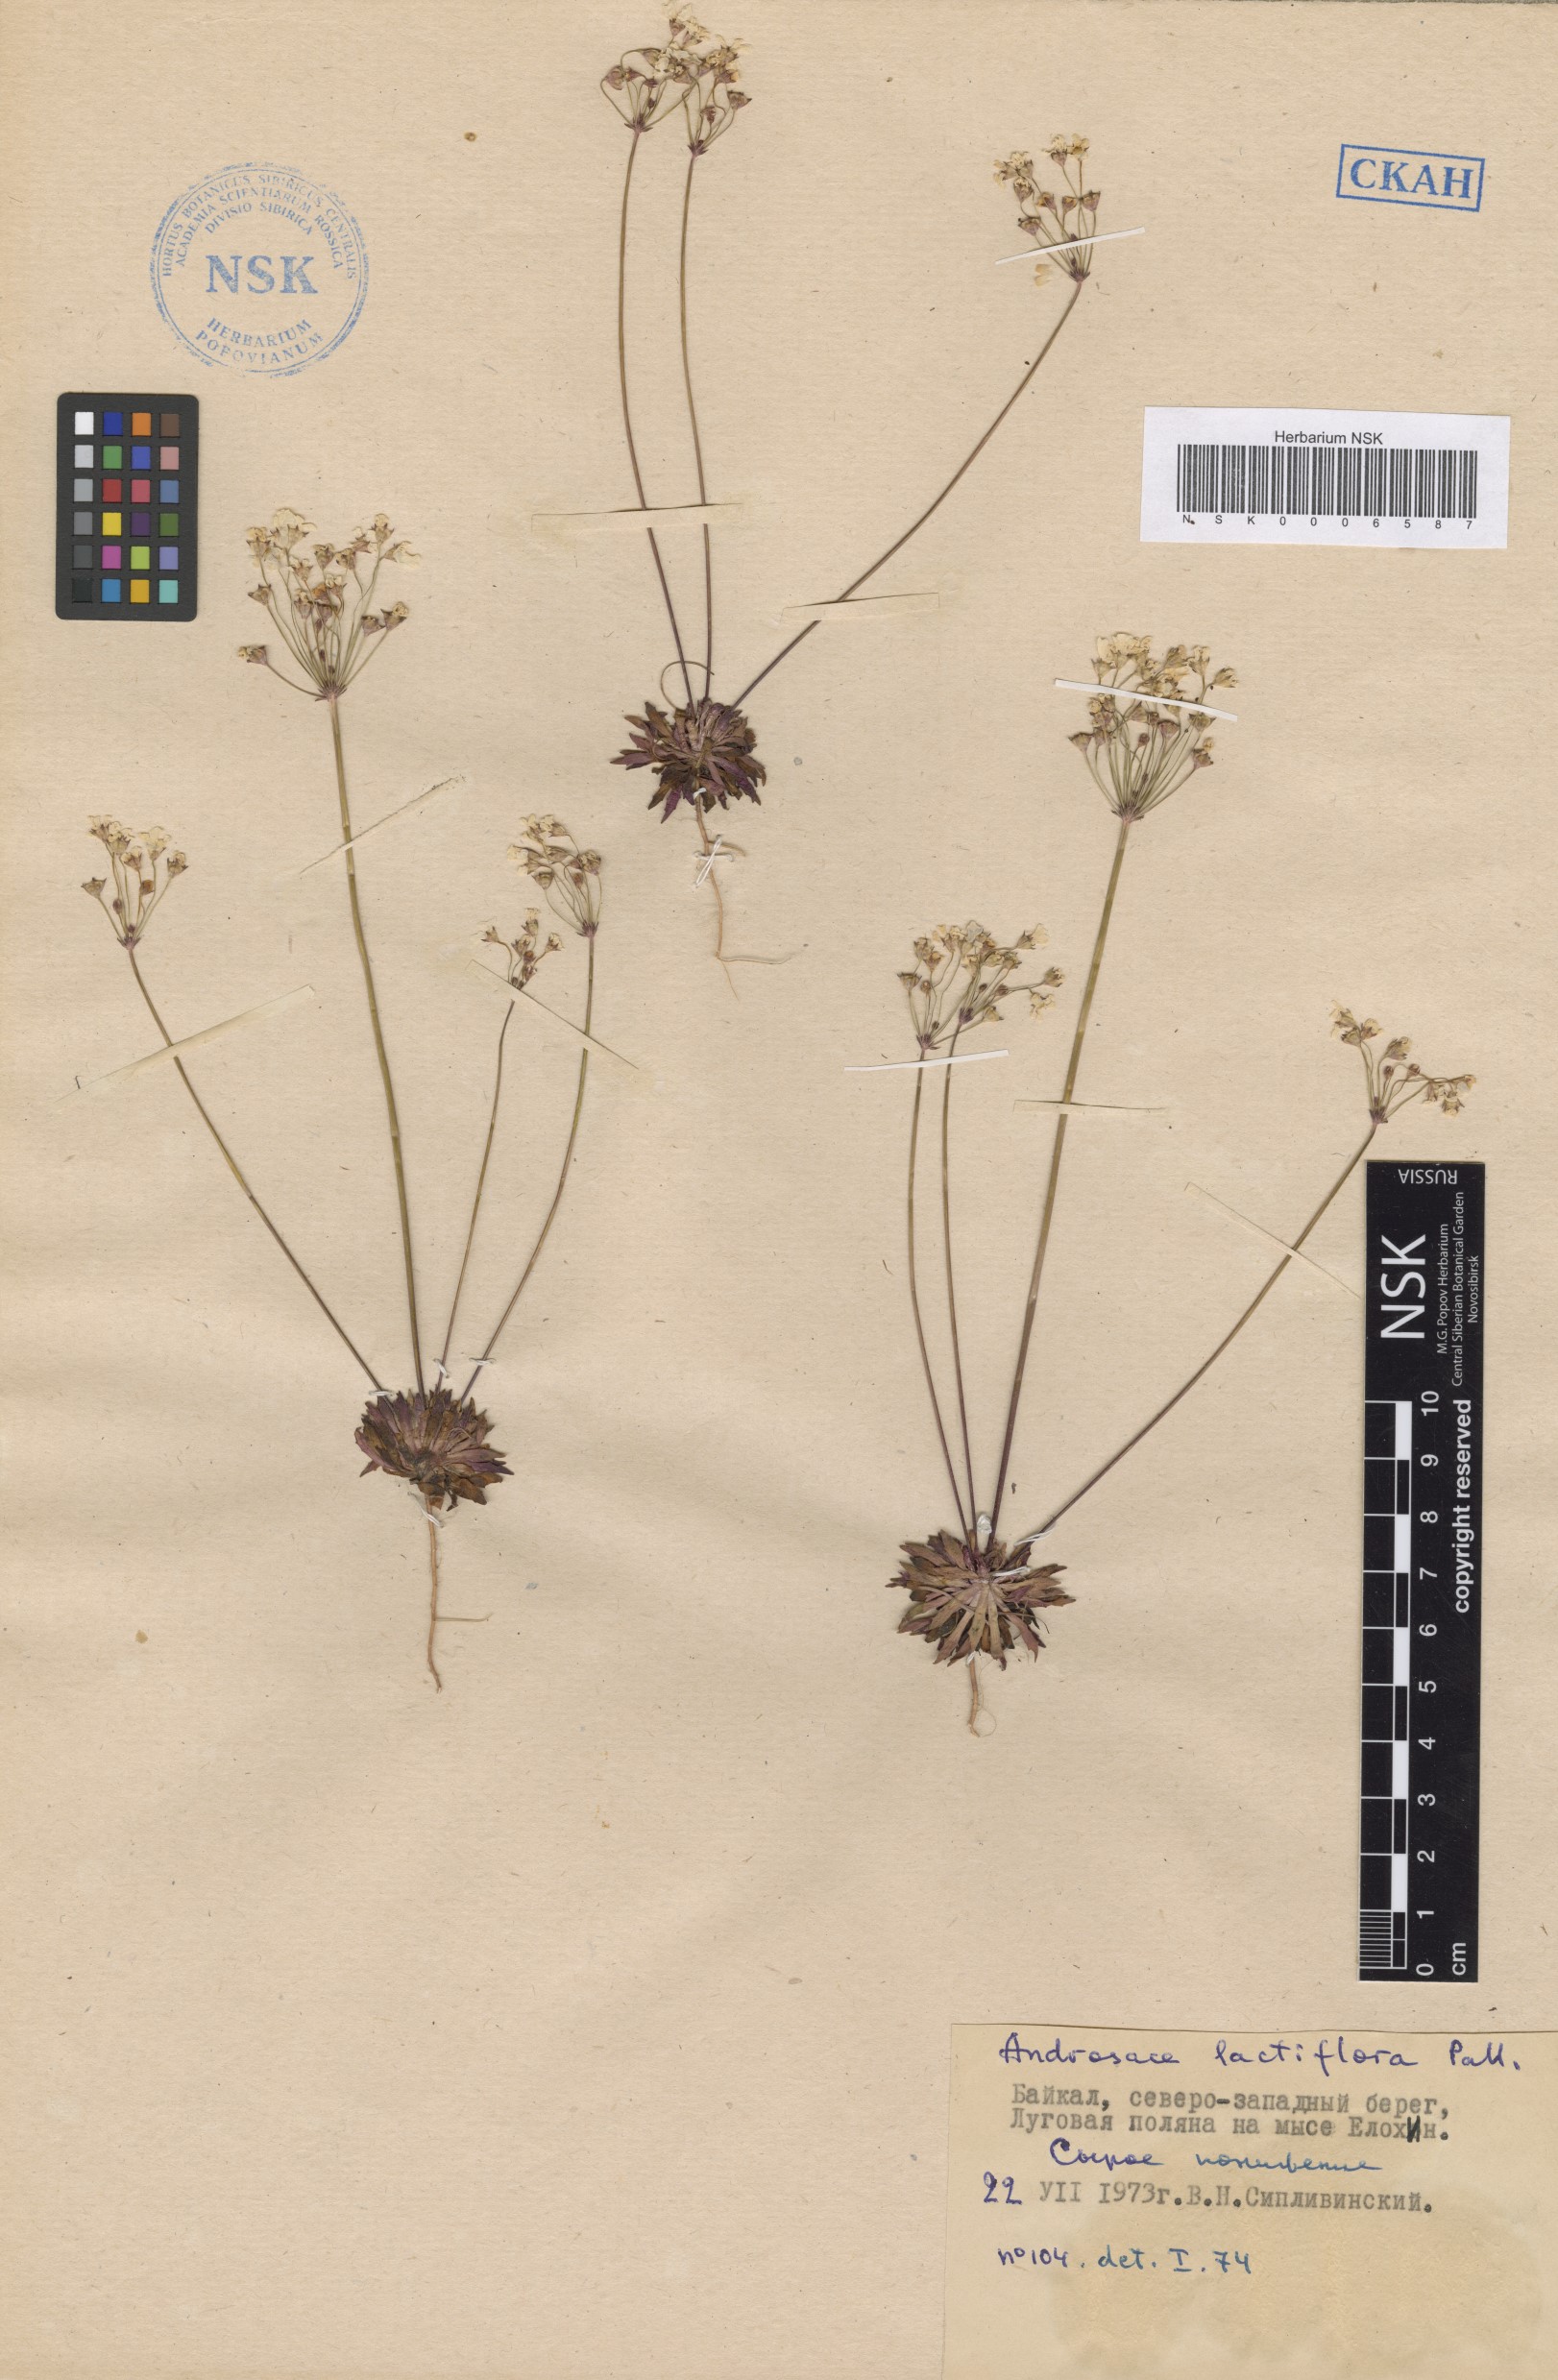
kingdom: Plantae
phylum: Tracheophyta
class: Magnoliopsida
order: Ericales
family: Primulaceae
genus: Androsace
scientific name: Androsace lactiflora
